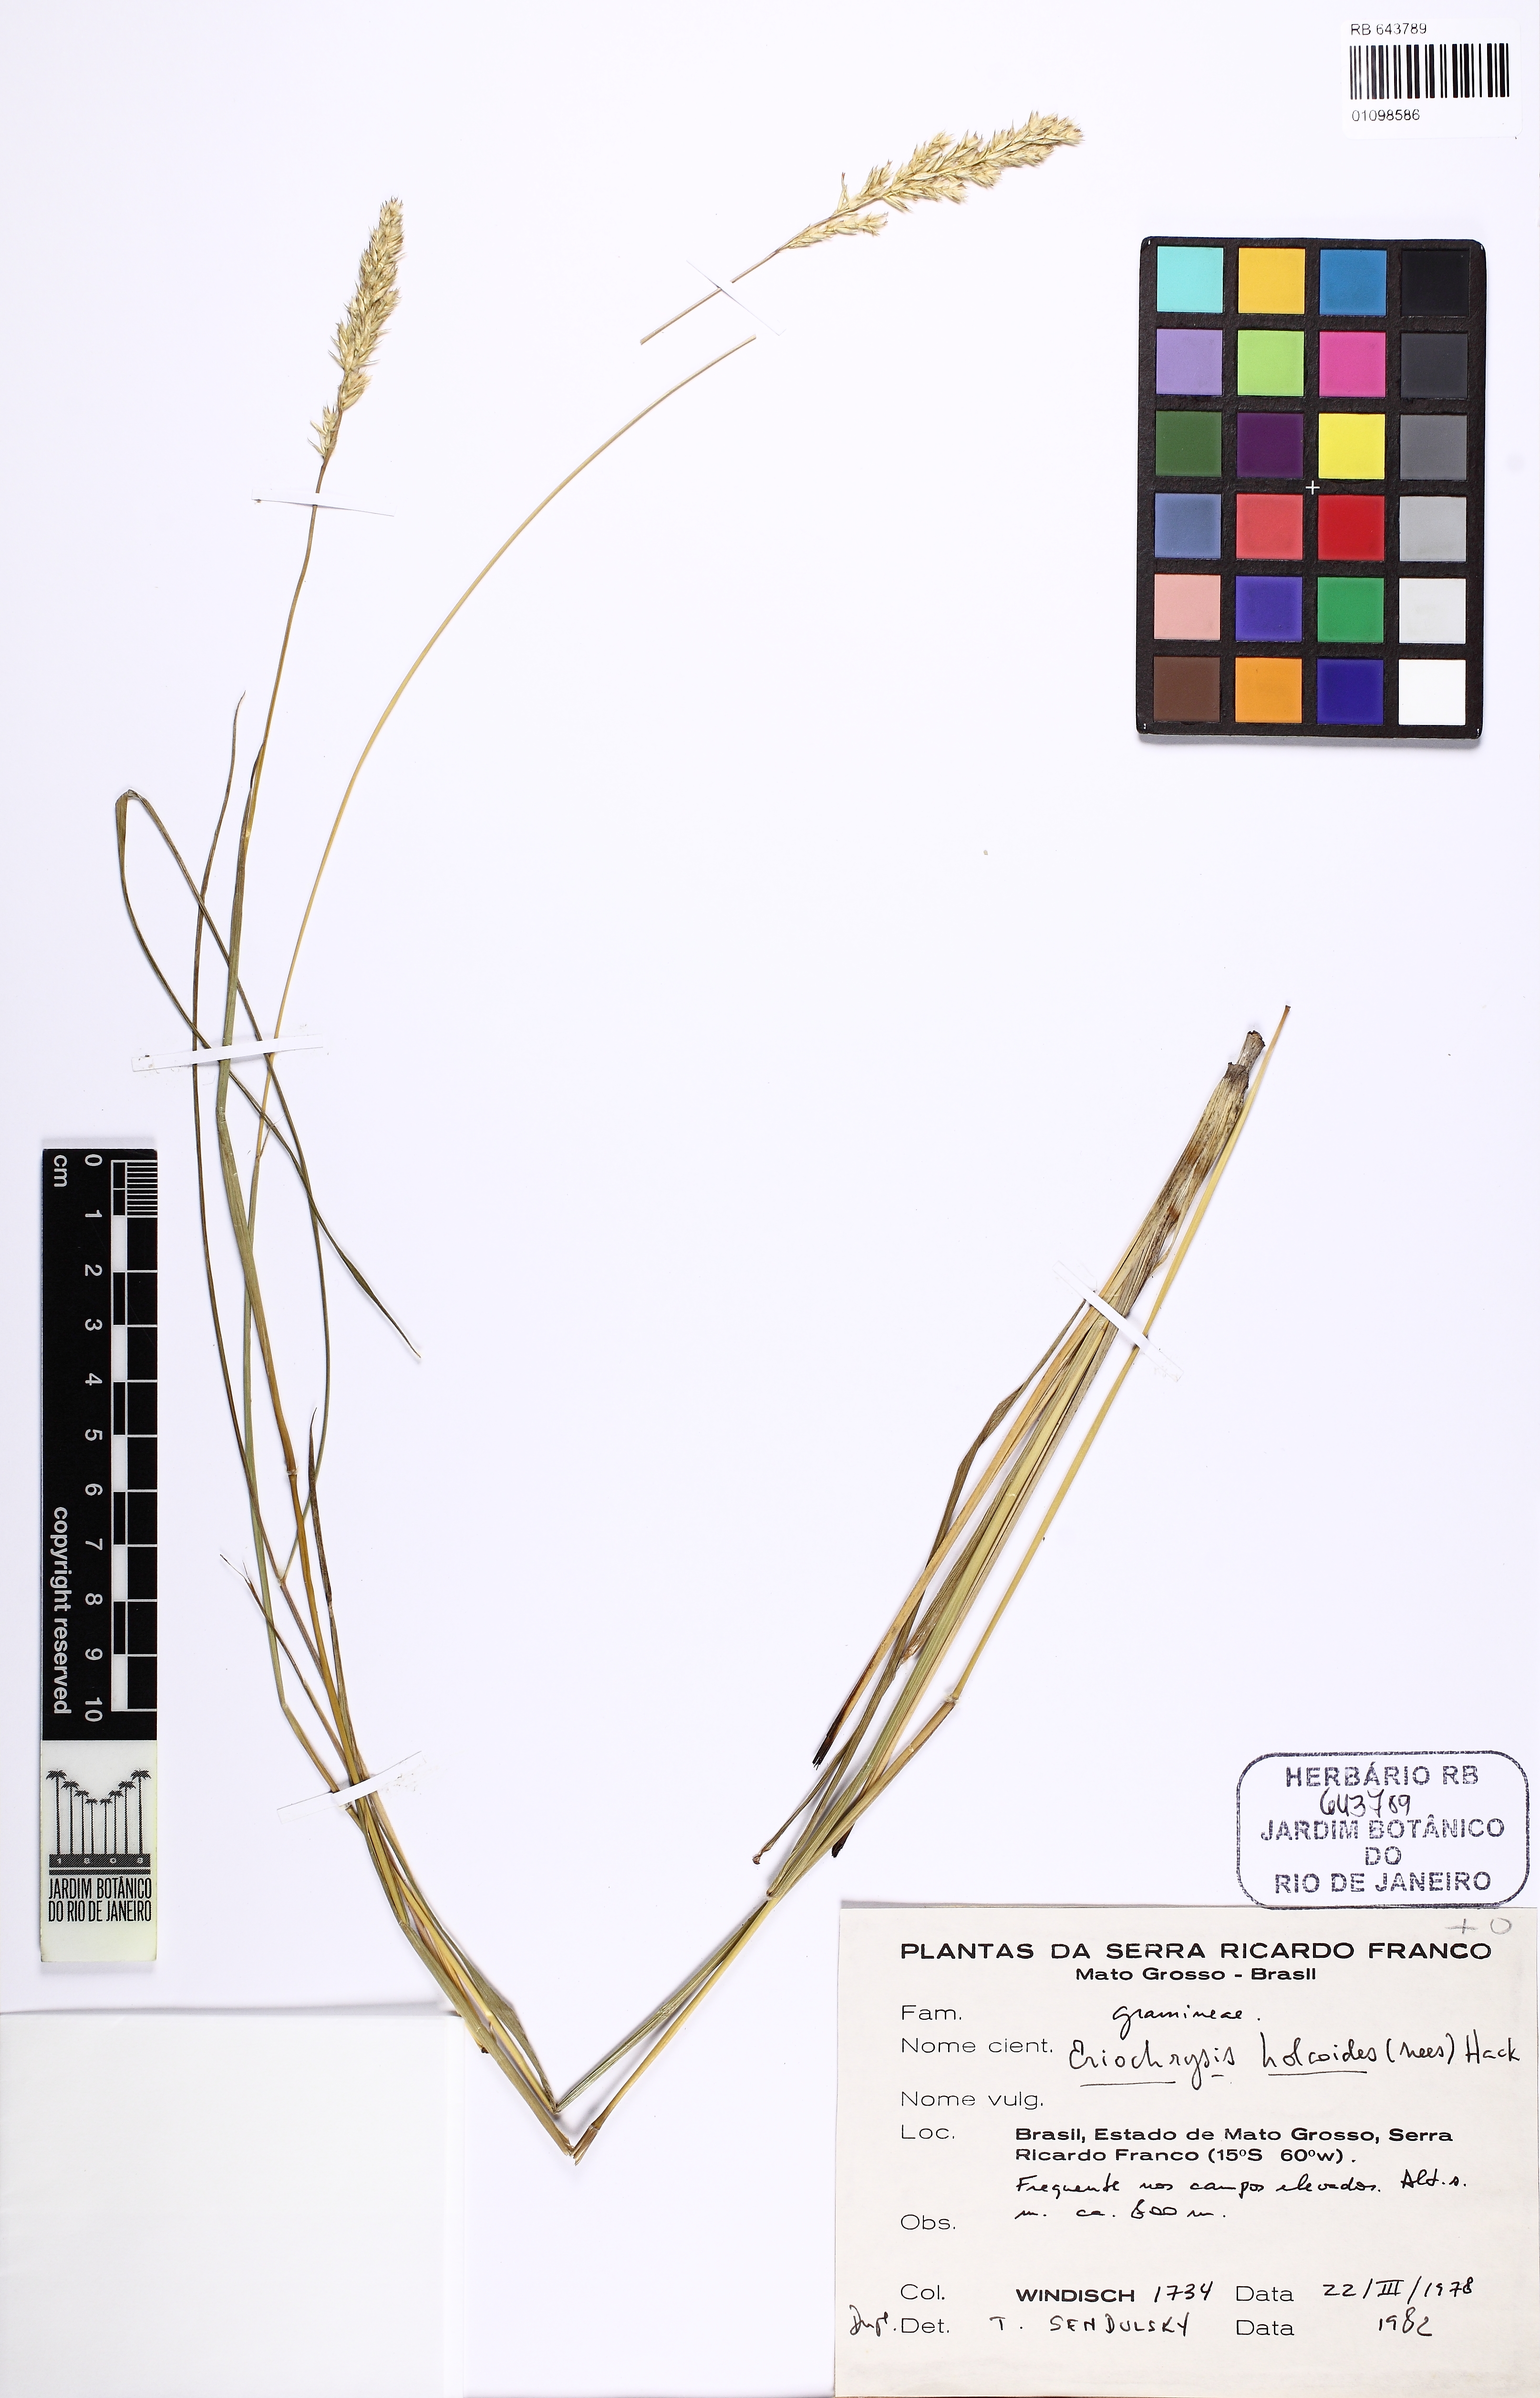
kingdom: Plantae
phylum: Tracheophyta
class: Liliopsida
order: Poales
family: Poaceae
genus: Eriochrysis
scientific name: Eriochrysis holcoides
